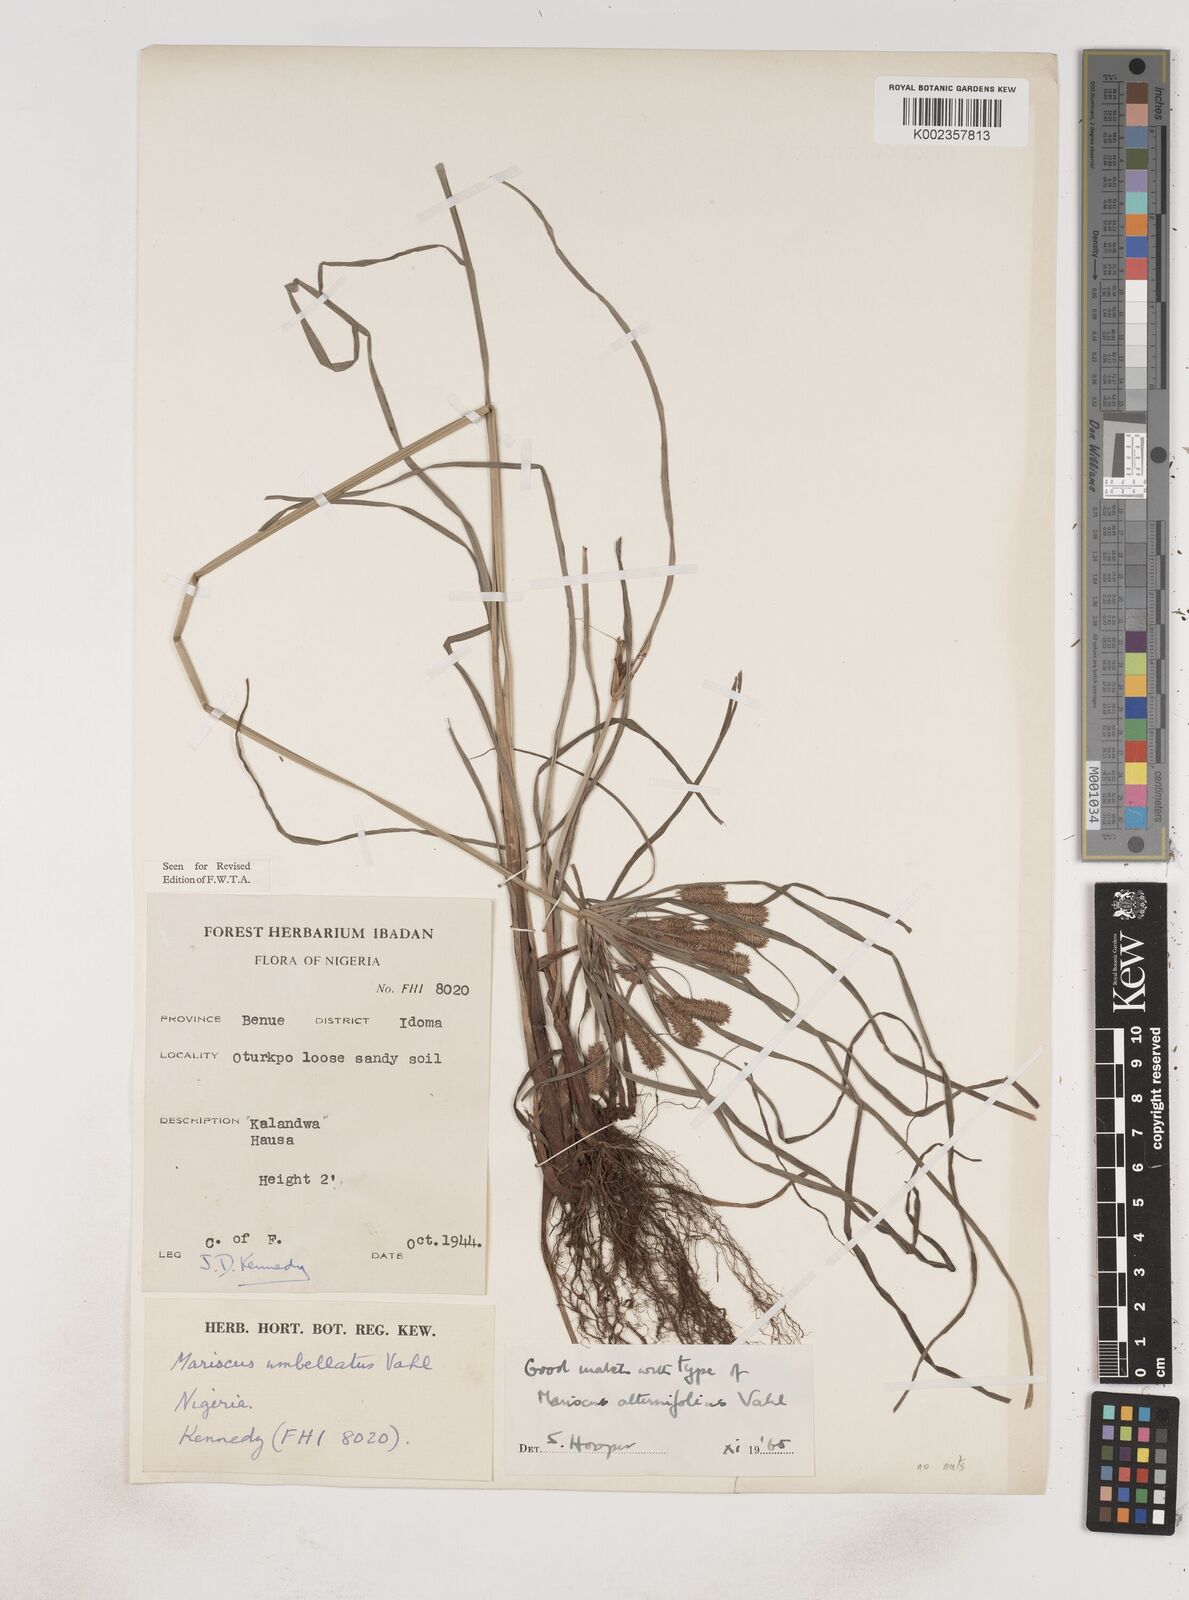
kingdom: Plantae
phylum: Tracheophyta
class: Liliopsida
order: Poales
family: Cyperaceae
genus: Cyperus
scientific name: Cyperus sublimis
